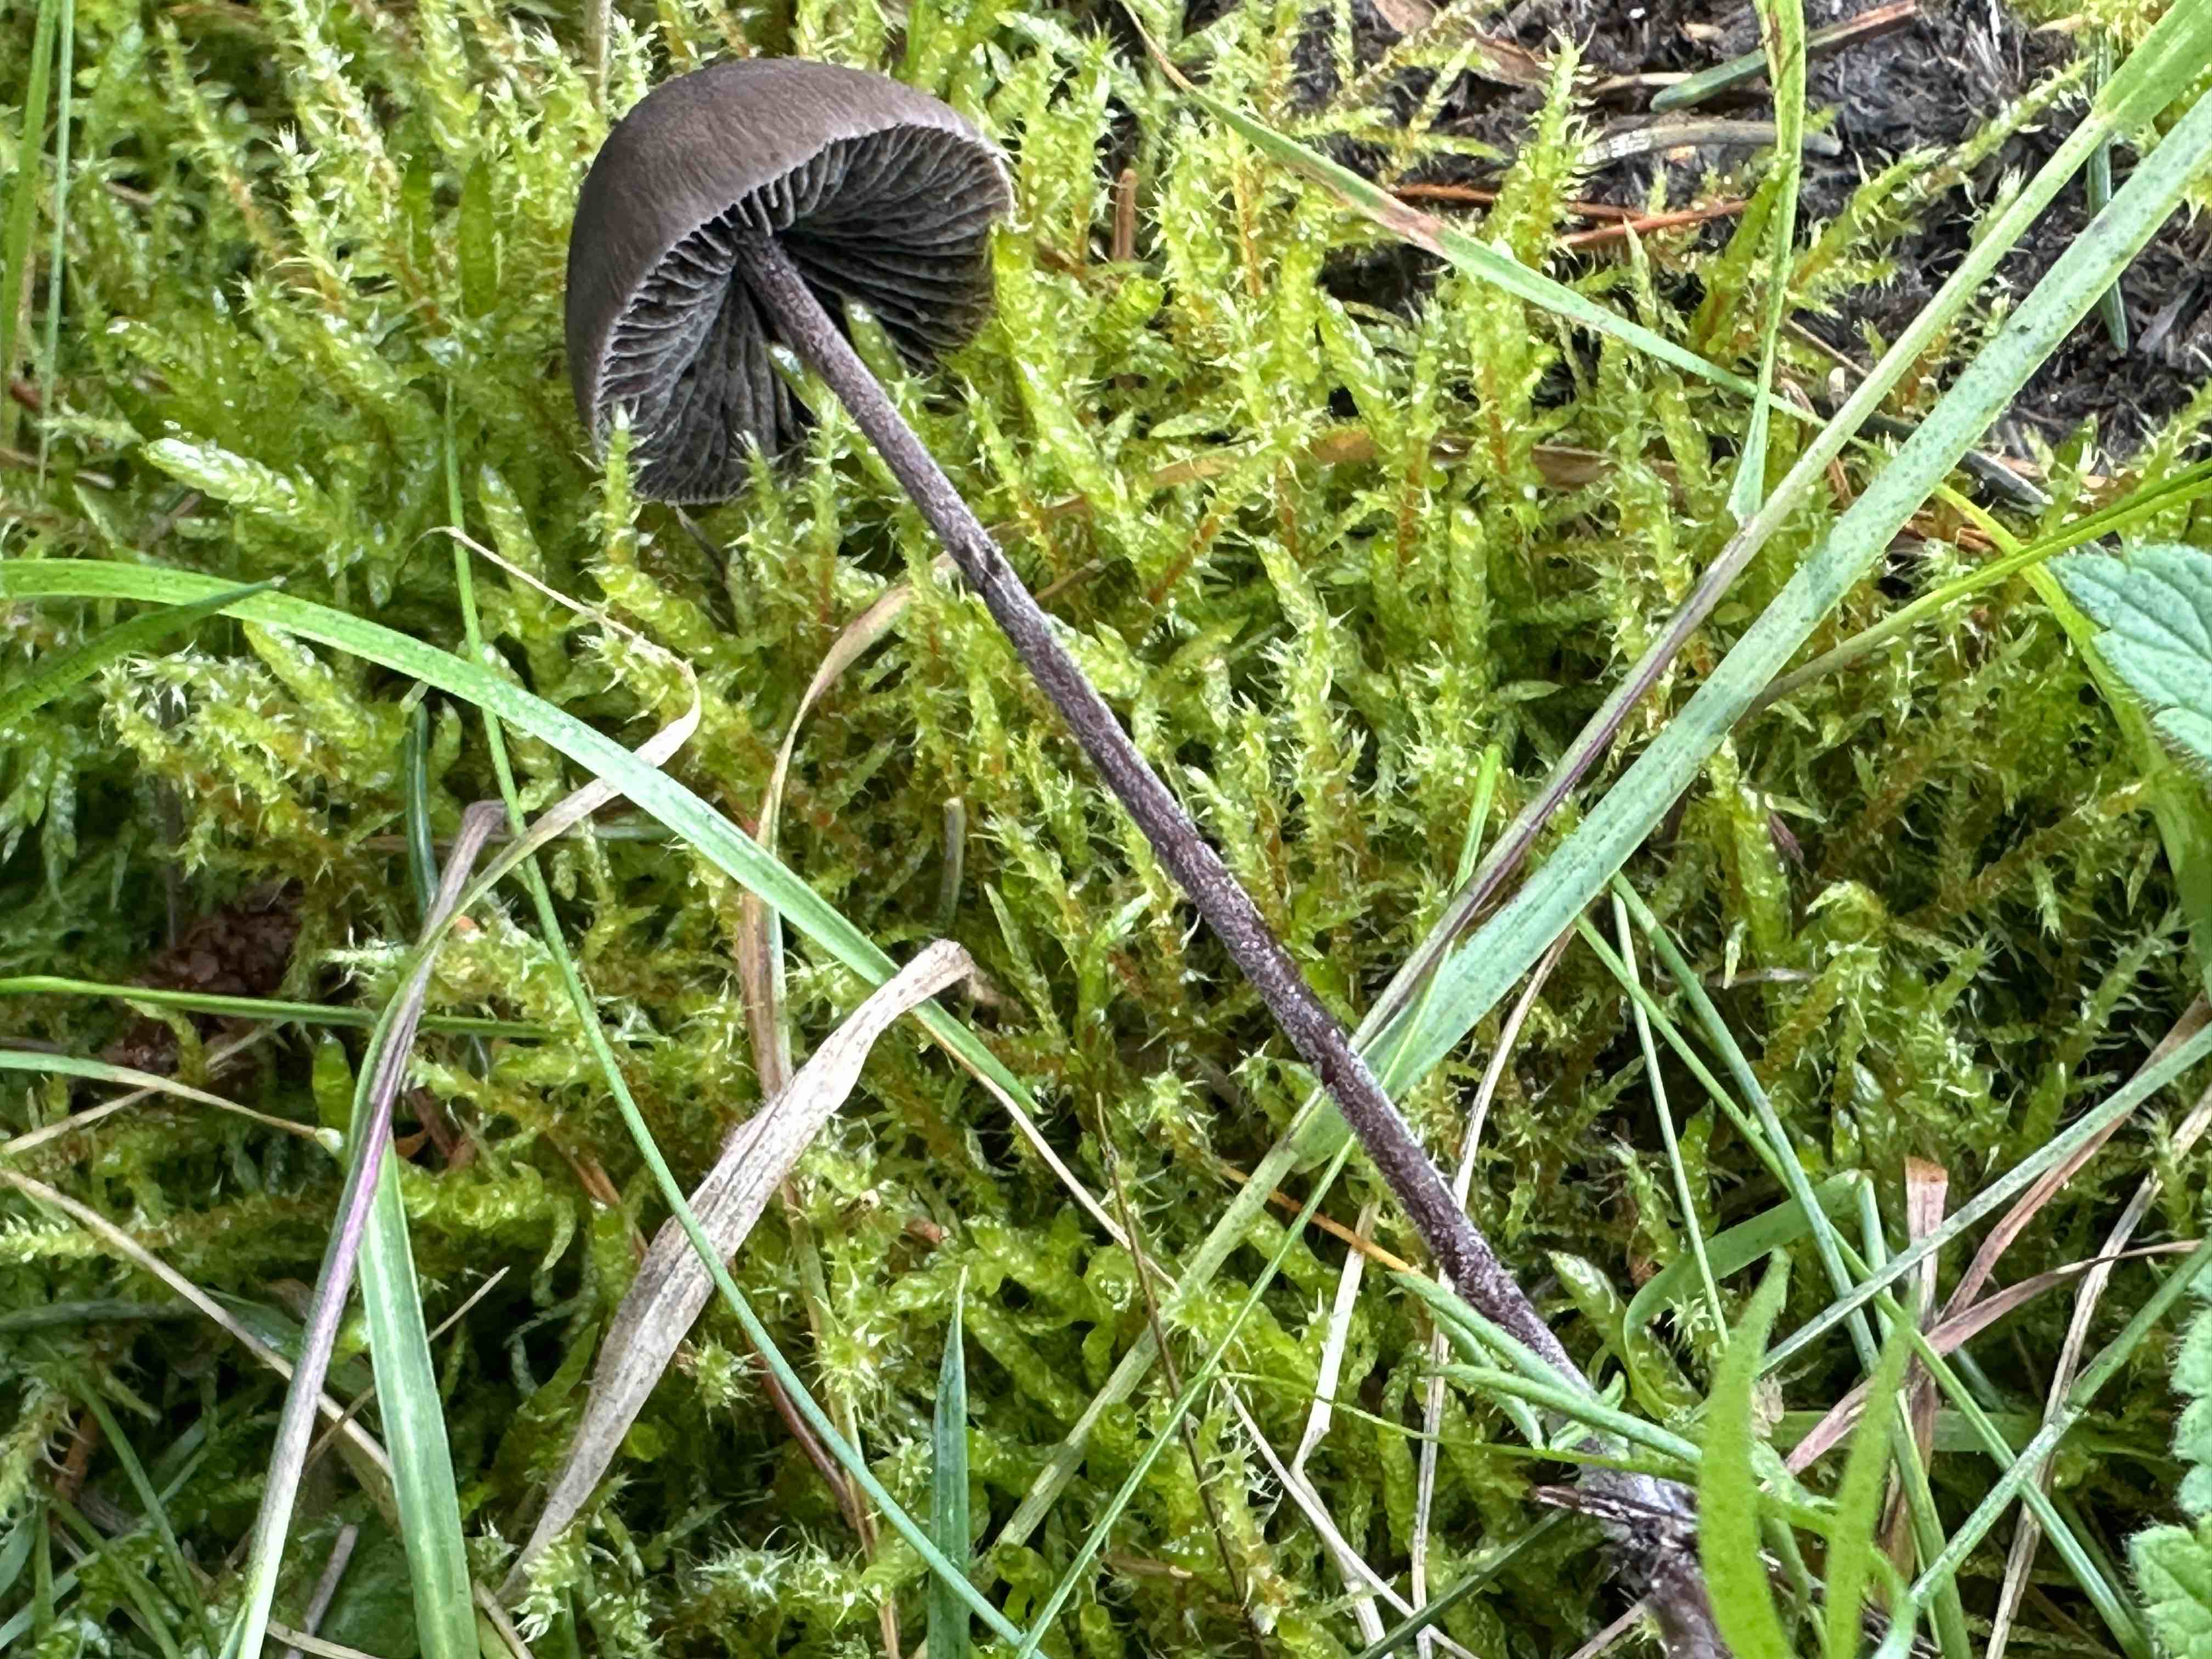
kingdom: Fungi
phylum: Basidiomycota
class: Agaricomycetes
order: Agaricales
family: Bolbitiaceae
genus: Panaeolus
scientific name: Panaeolus acuminatus
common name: høj glanshat
